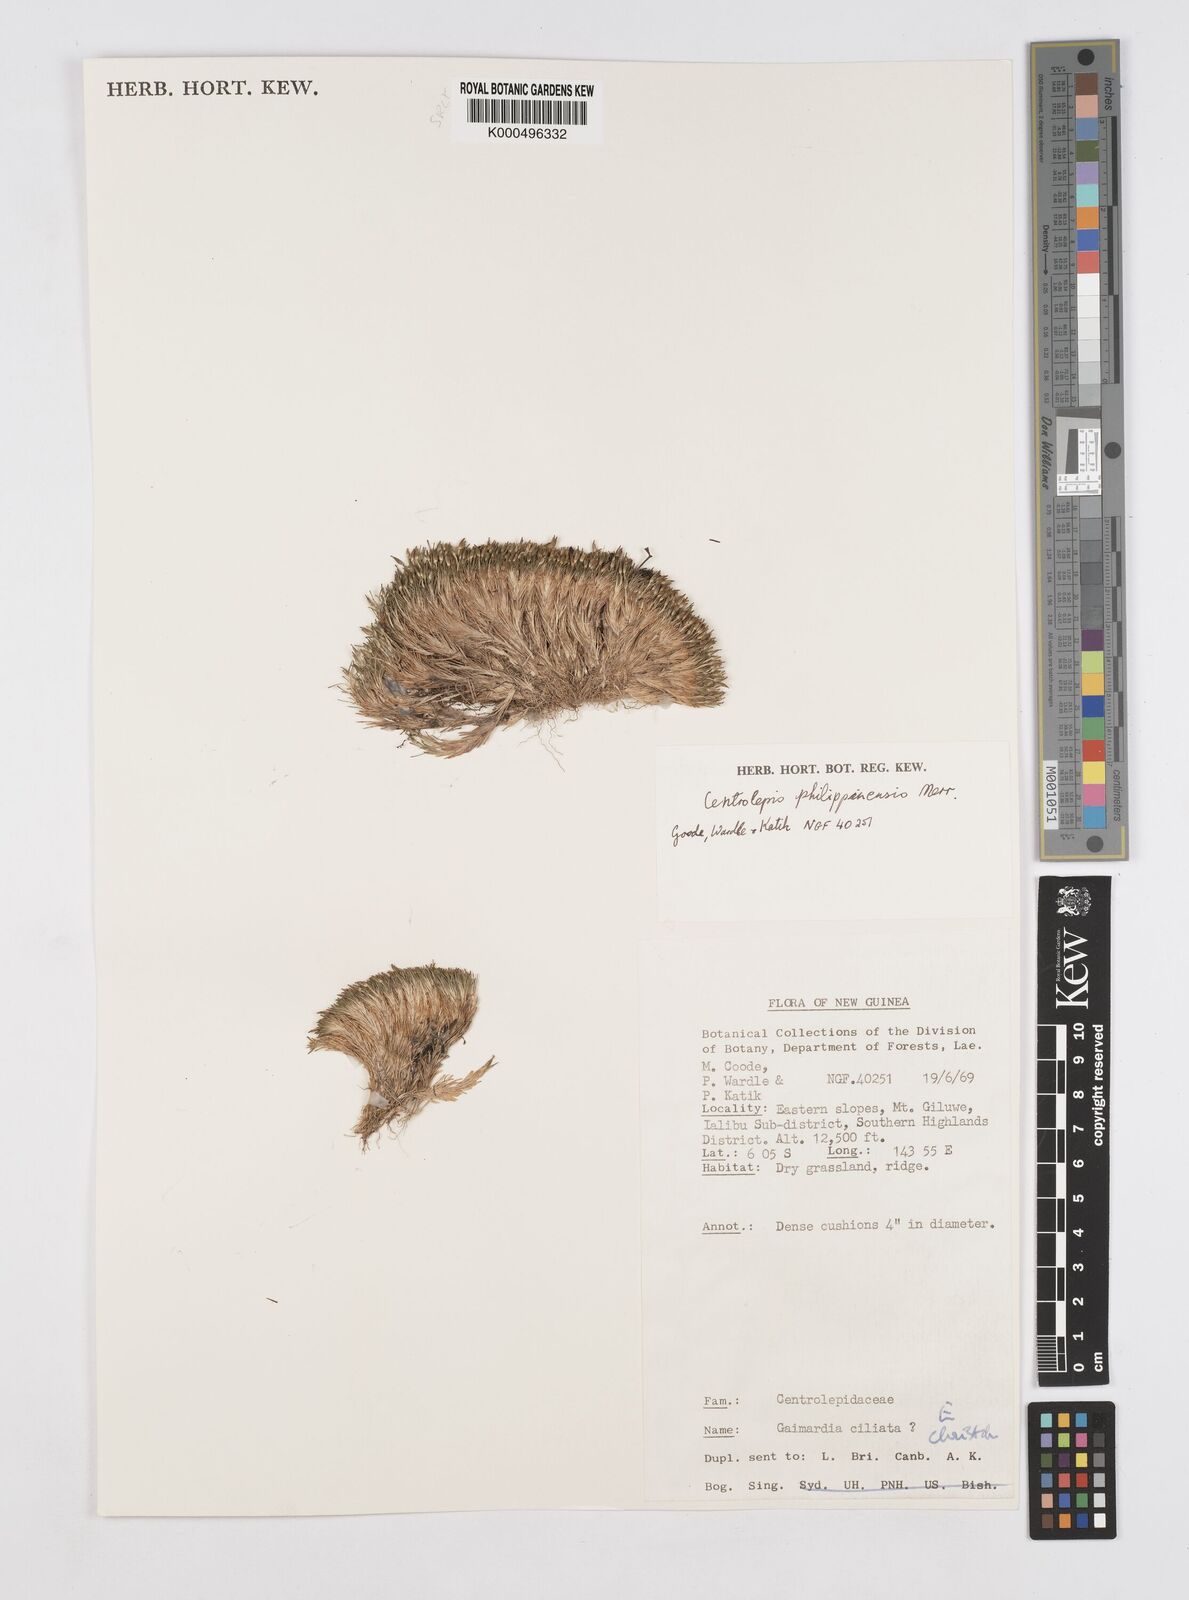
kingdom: Plantae
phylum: Tracheophyta
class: Liliopsida
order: Poales
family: Restionaceae
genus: Centrolepis
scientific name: Centrolepis philippinensis
